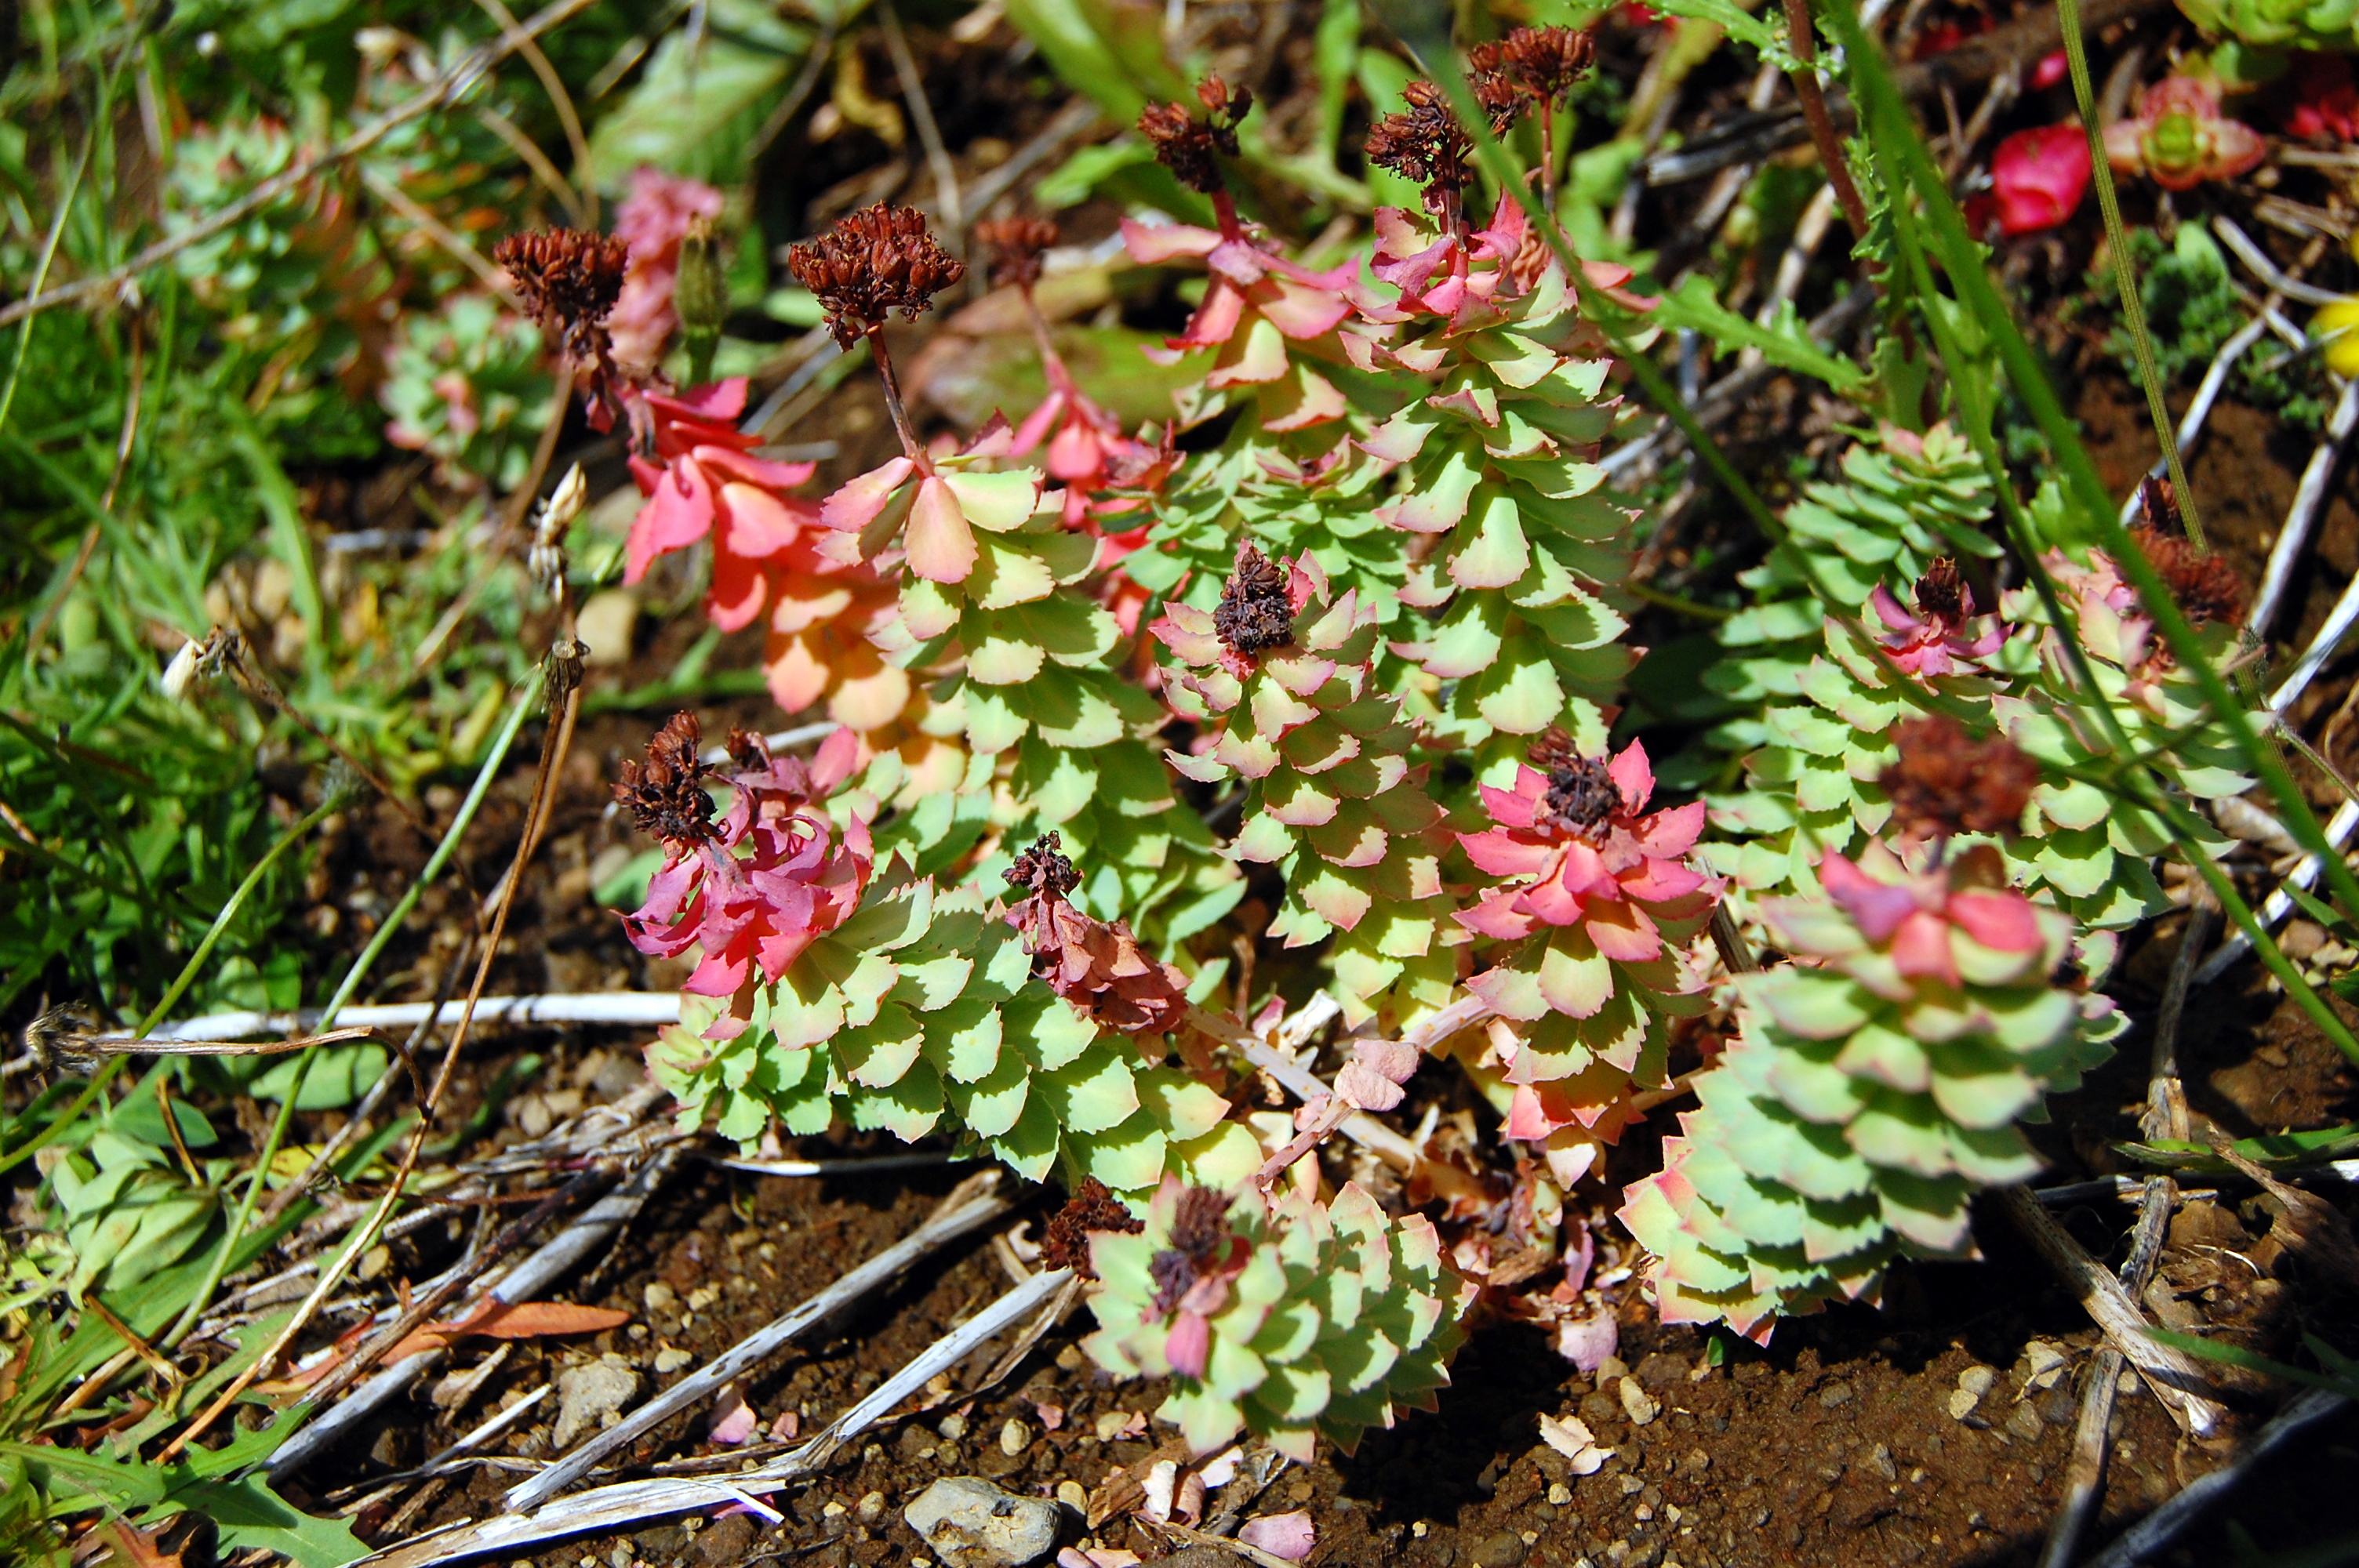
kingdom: Plantae
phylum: Tracheophyta
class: Magnoliopsida
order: Saxifragales
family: Crassulaceae
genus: Rhodiola
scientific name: Rhodiola rosea
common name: Roseroot
